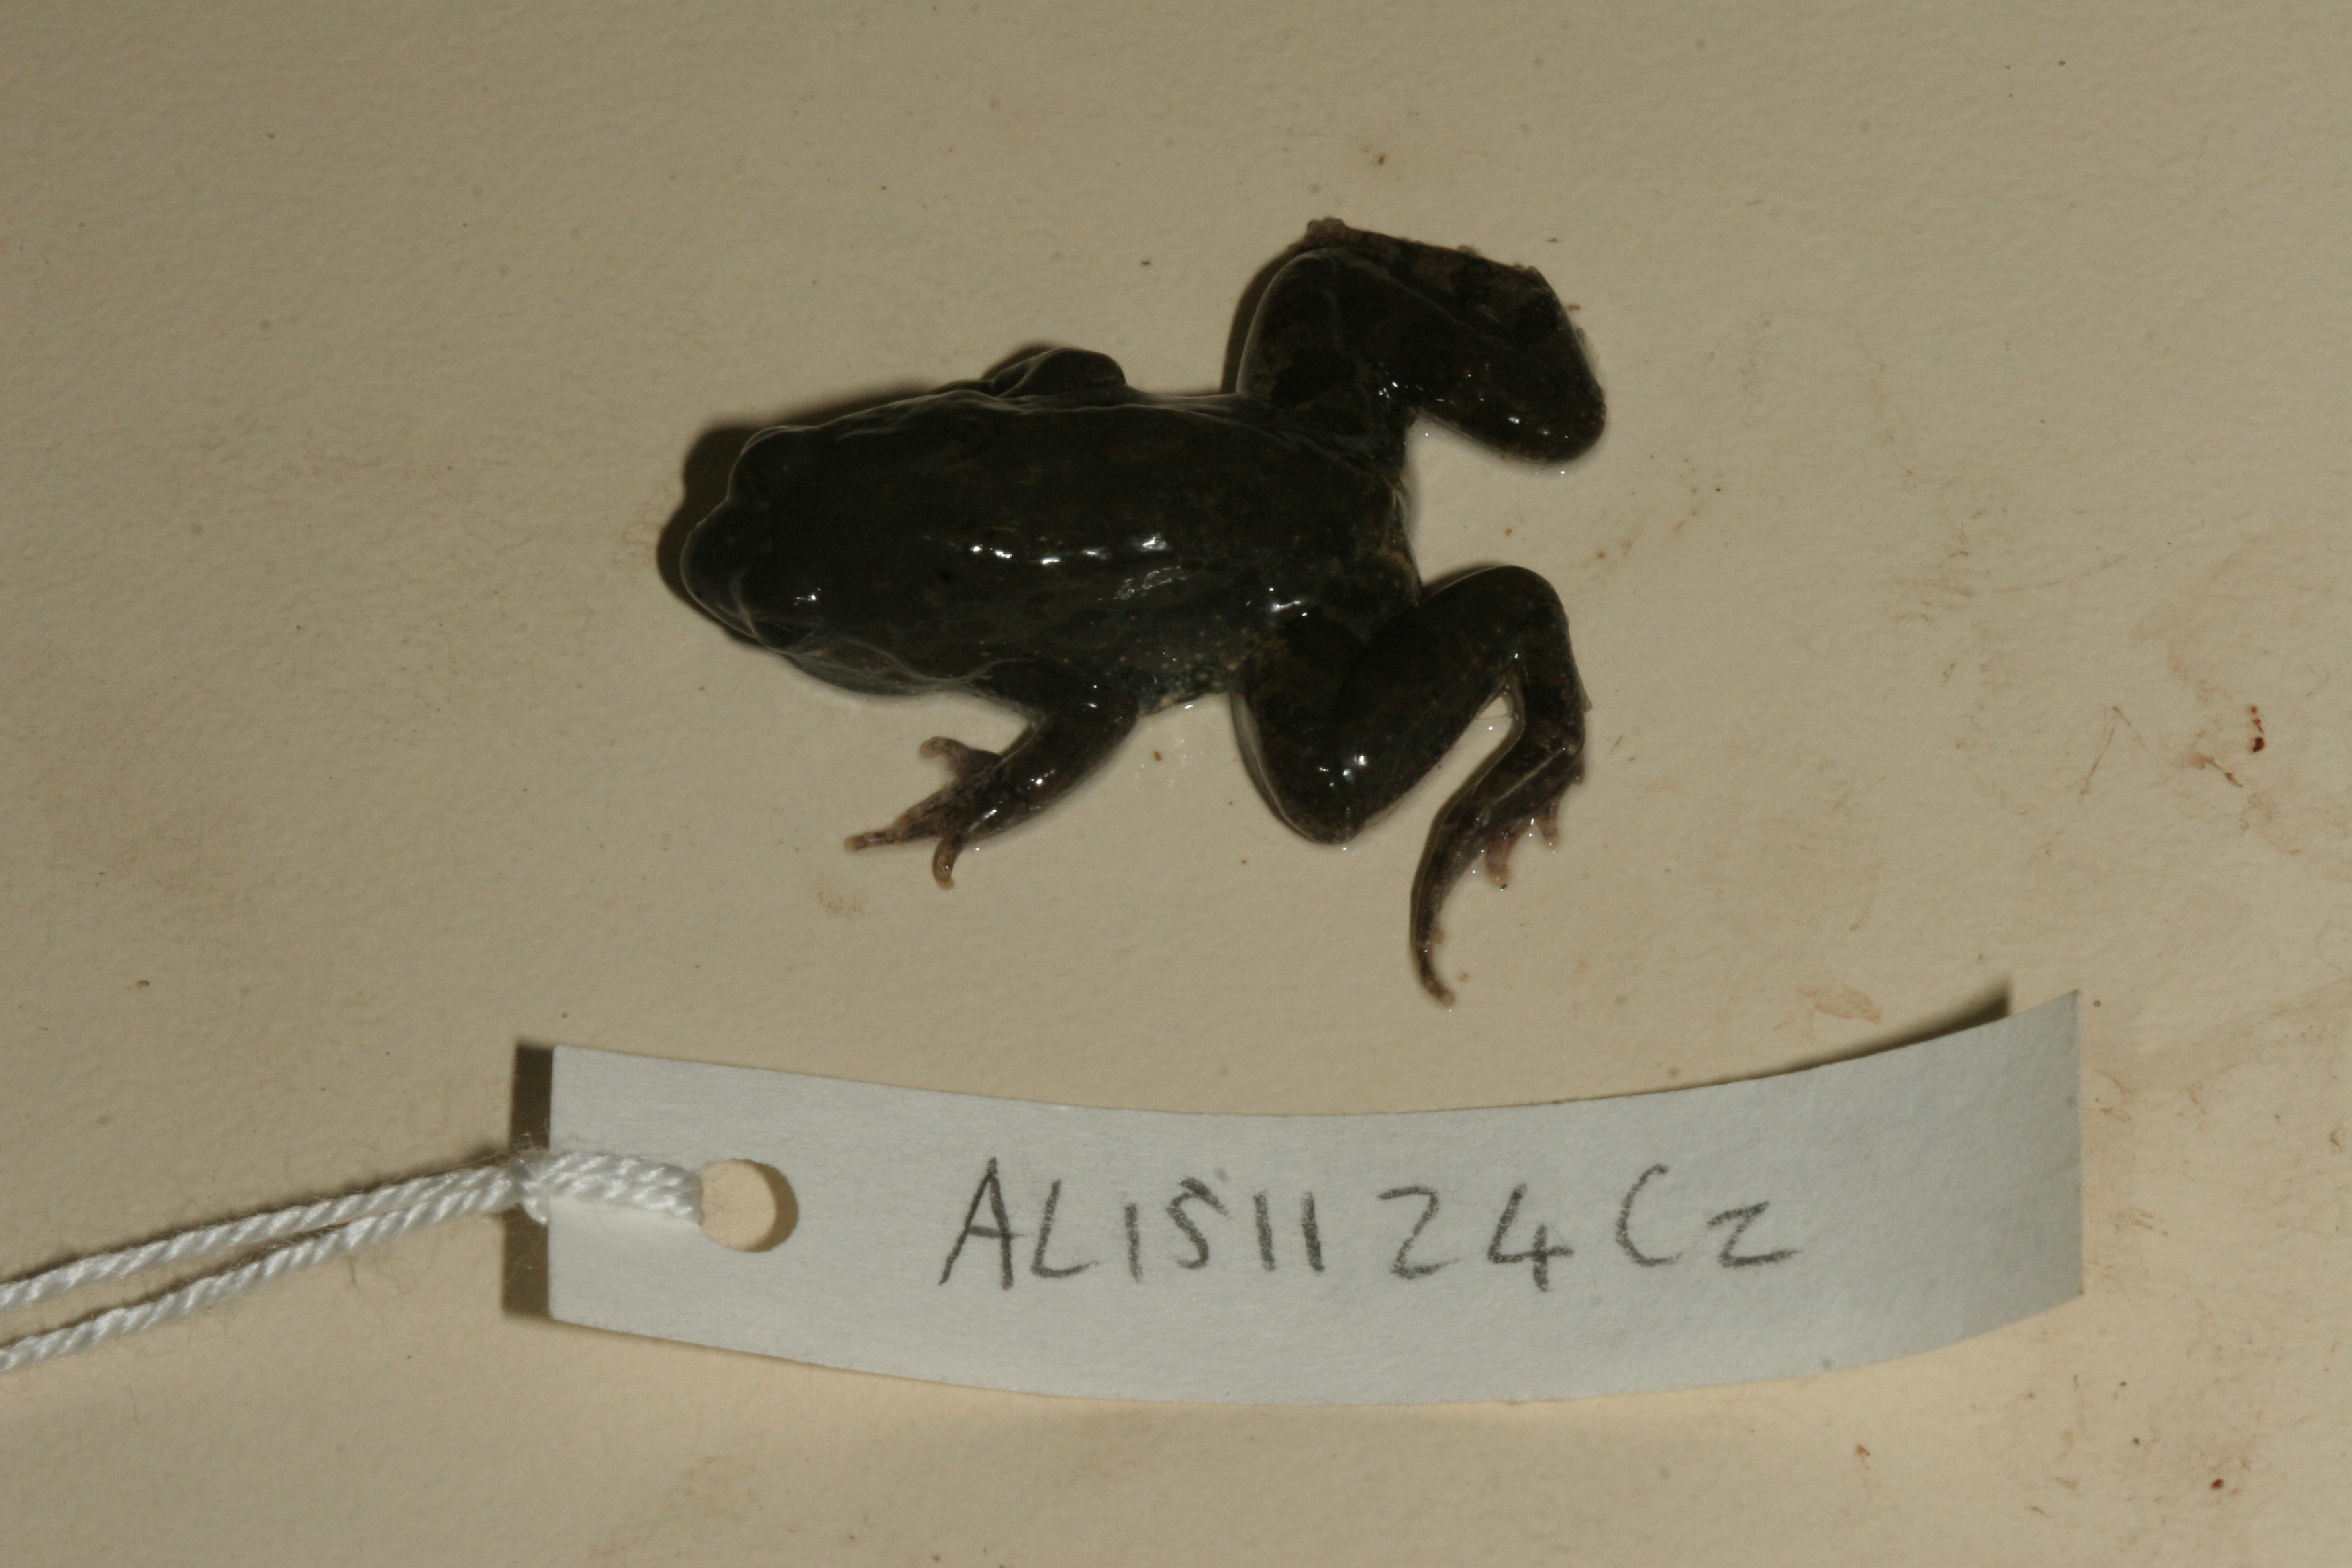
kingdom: Animalia
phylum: Chordata
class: Amphibia
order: Anura
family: Phrynobatrachidae
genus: Phrynobatrachus
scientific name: Phrynobatrachus natalensis
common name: Snoring puddle frog
